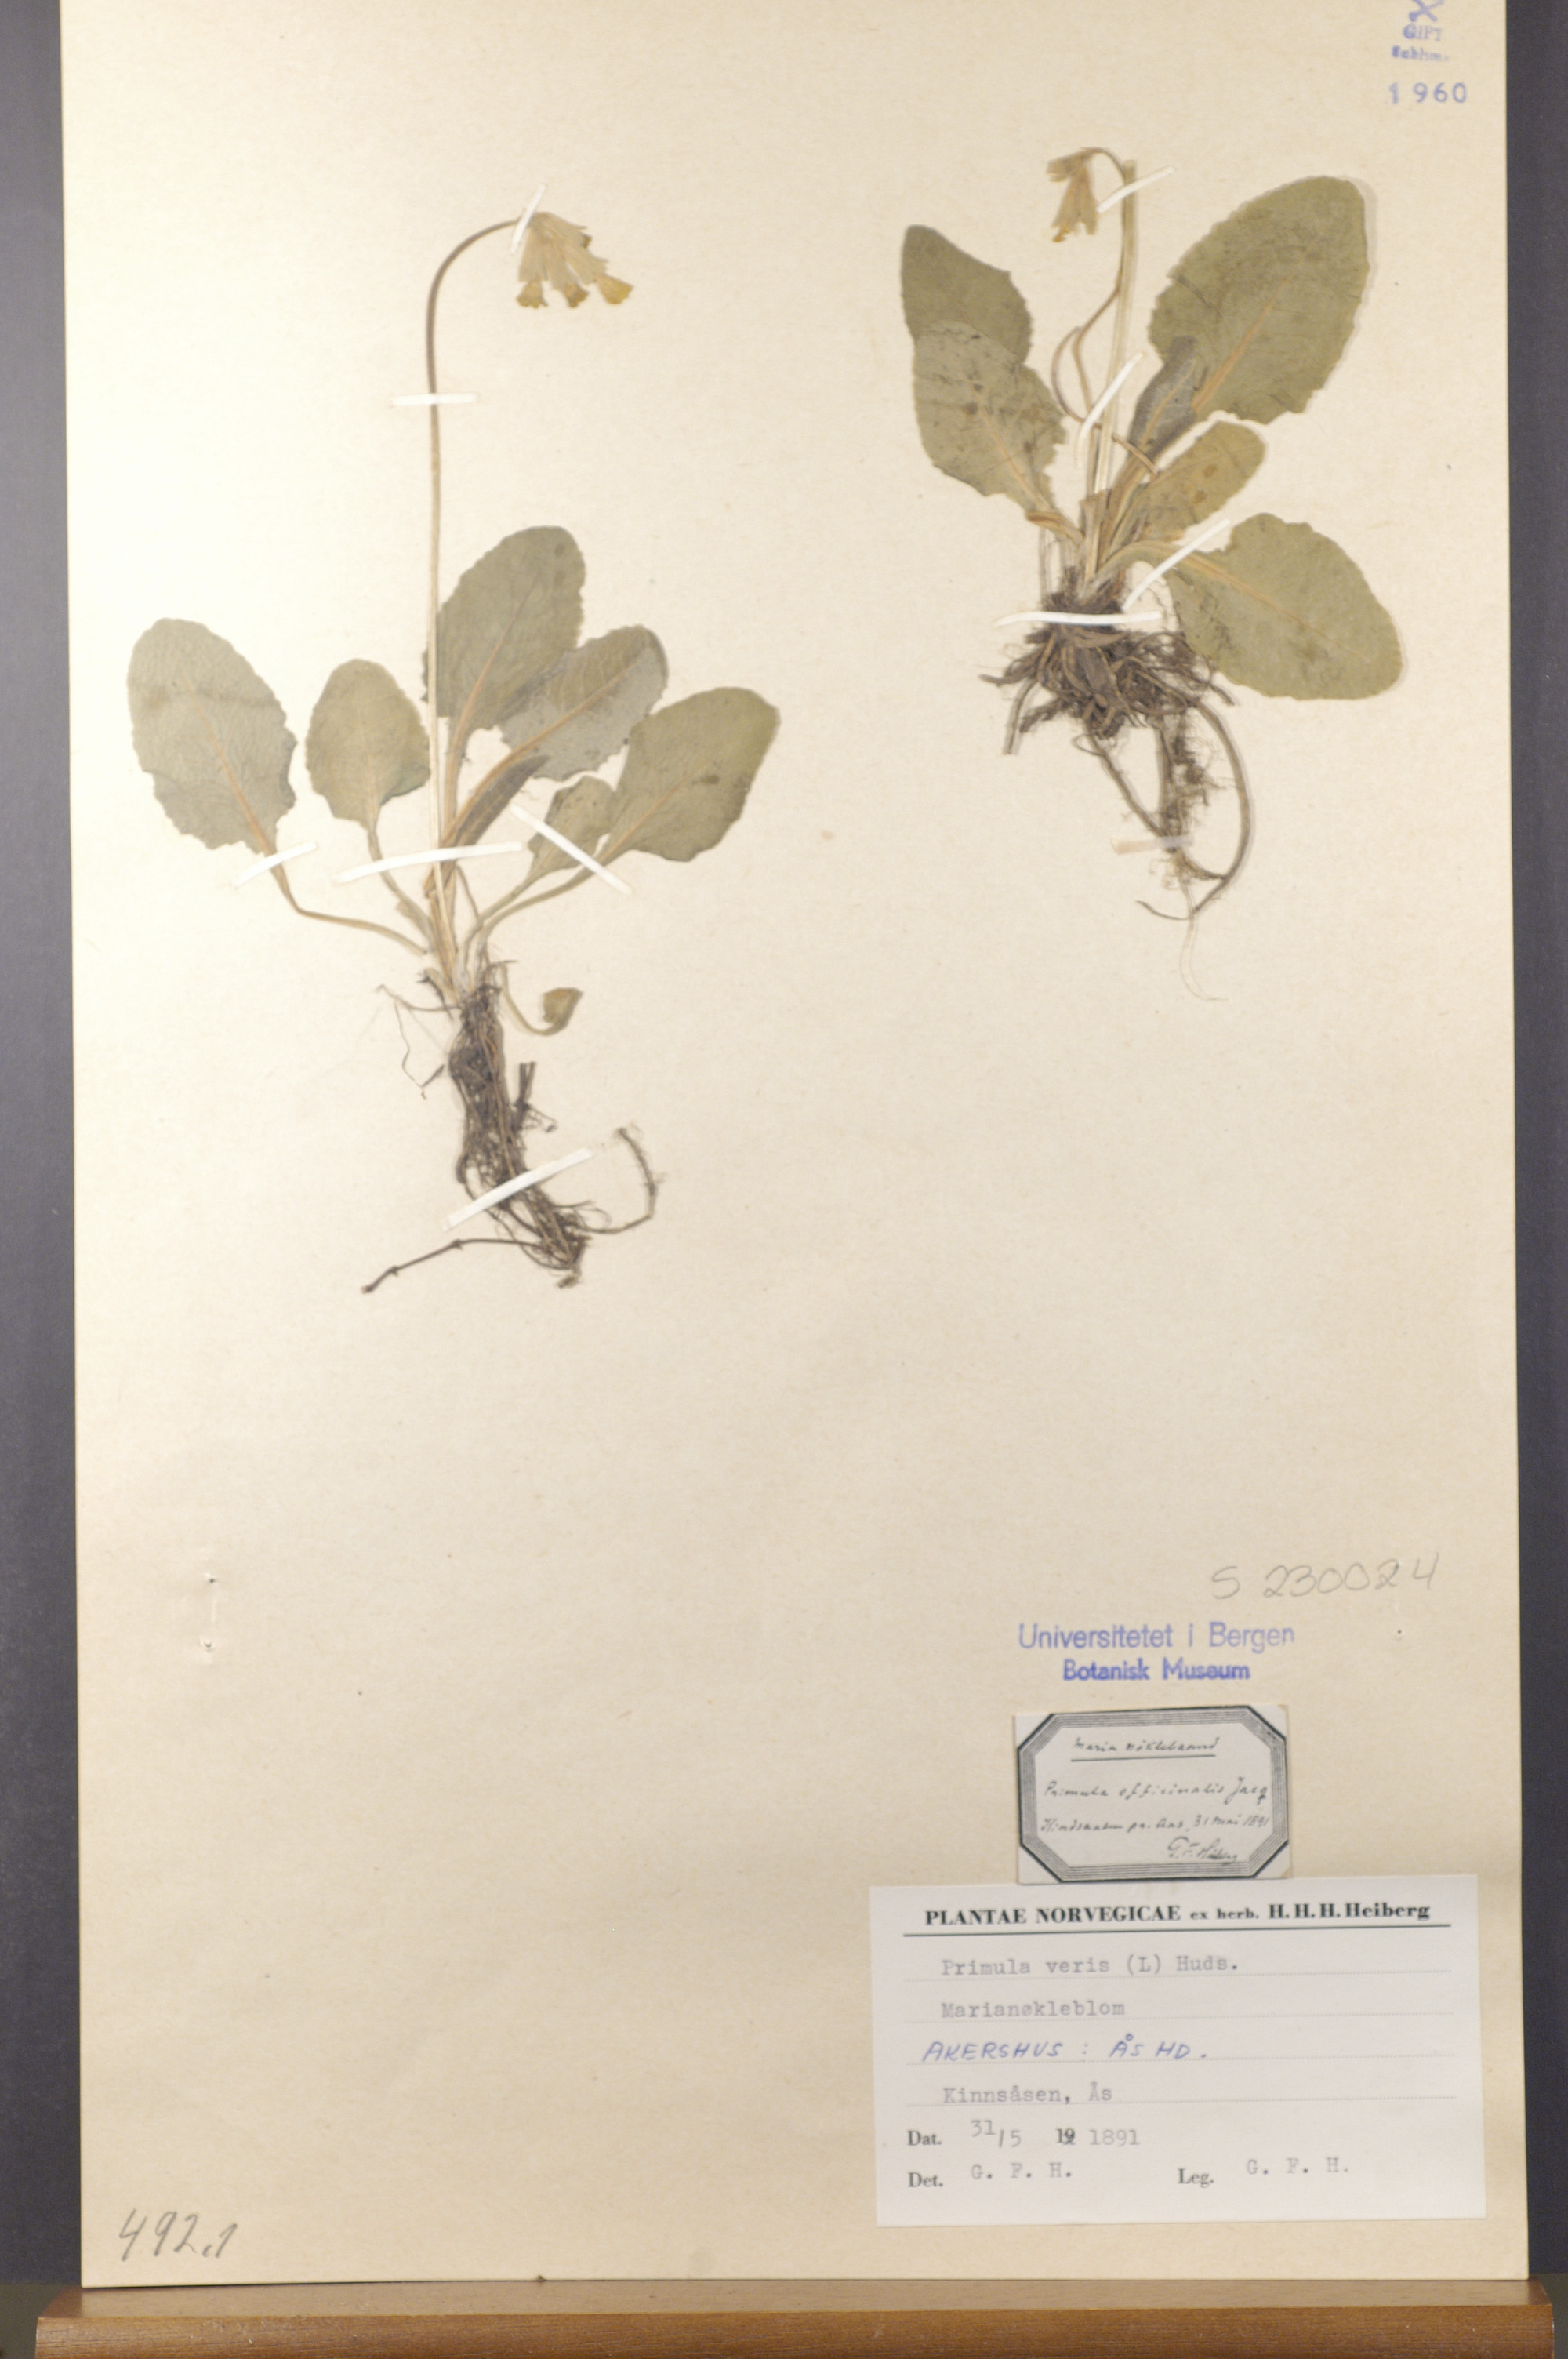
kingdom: Plantae
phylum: Tracheophyta
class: Magnoliopsida
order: Ericales
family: Primulaceae
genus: Primula
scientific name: Primula veris
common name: Cowslip
